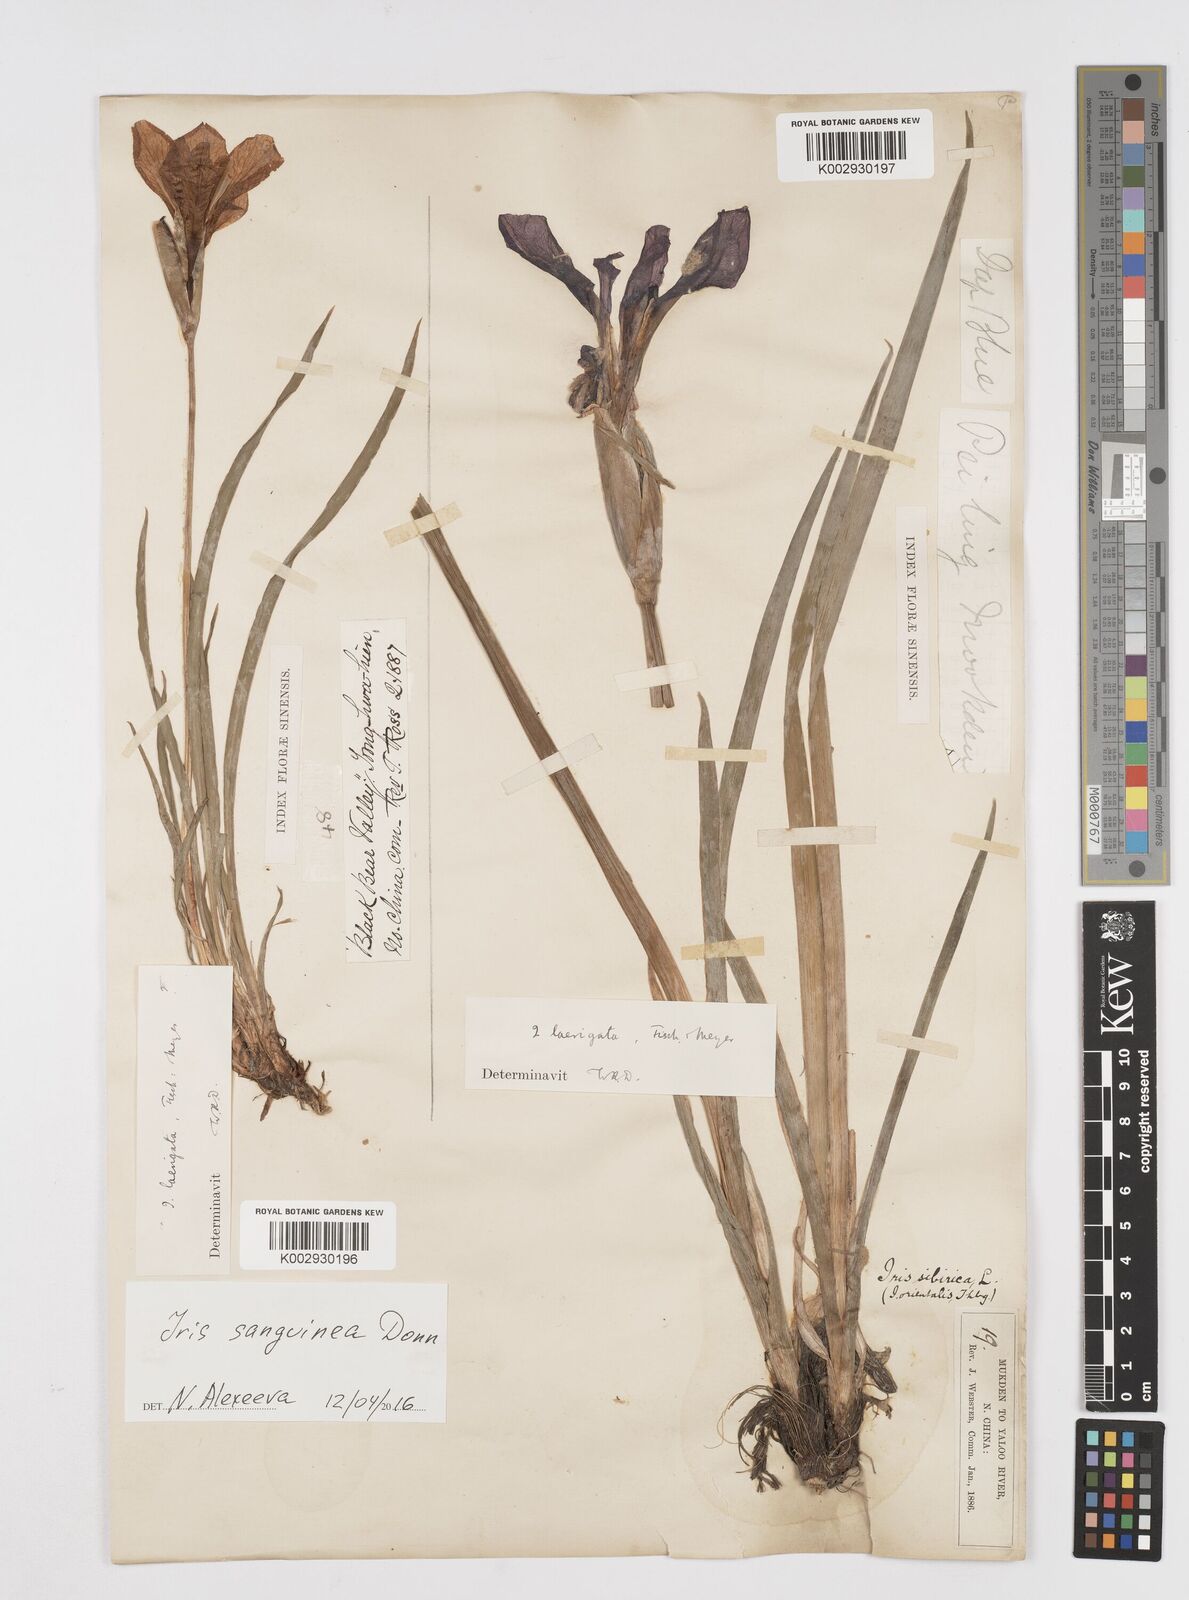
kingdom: Plantae
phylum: Tracheophyta
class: Liliopsida
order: Asparagales
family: Iridaceae
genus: Iris
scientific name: Iris laevigata
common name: Japanese iris
